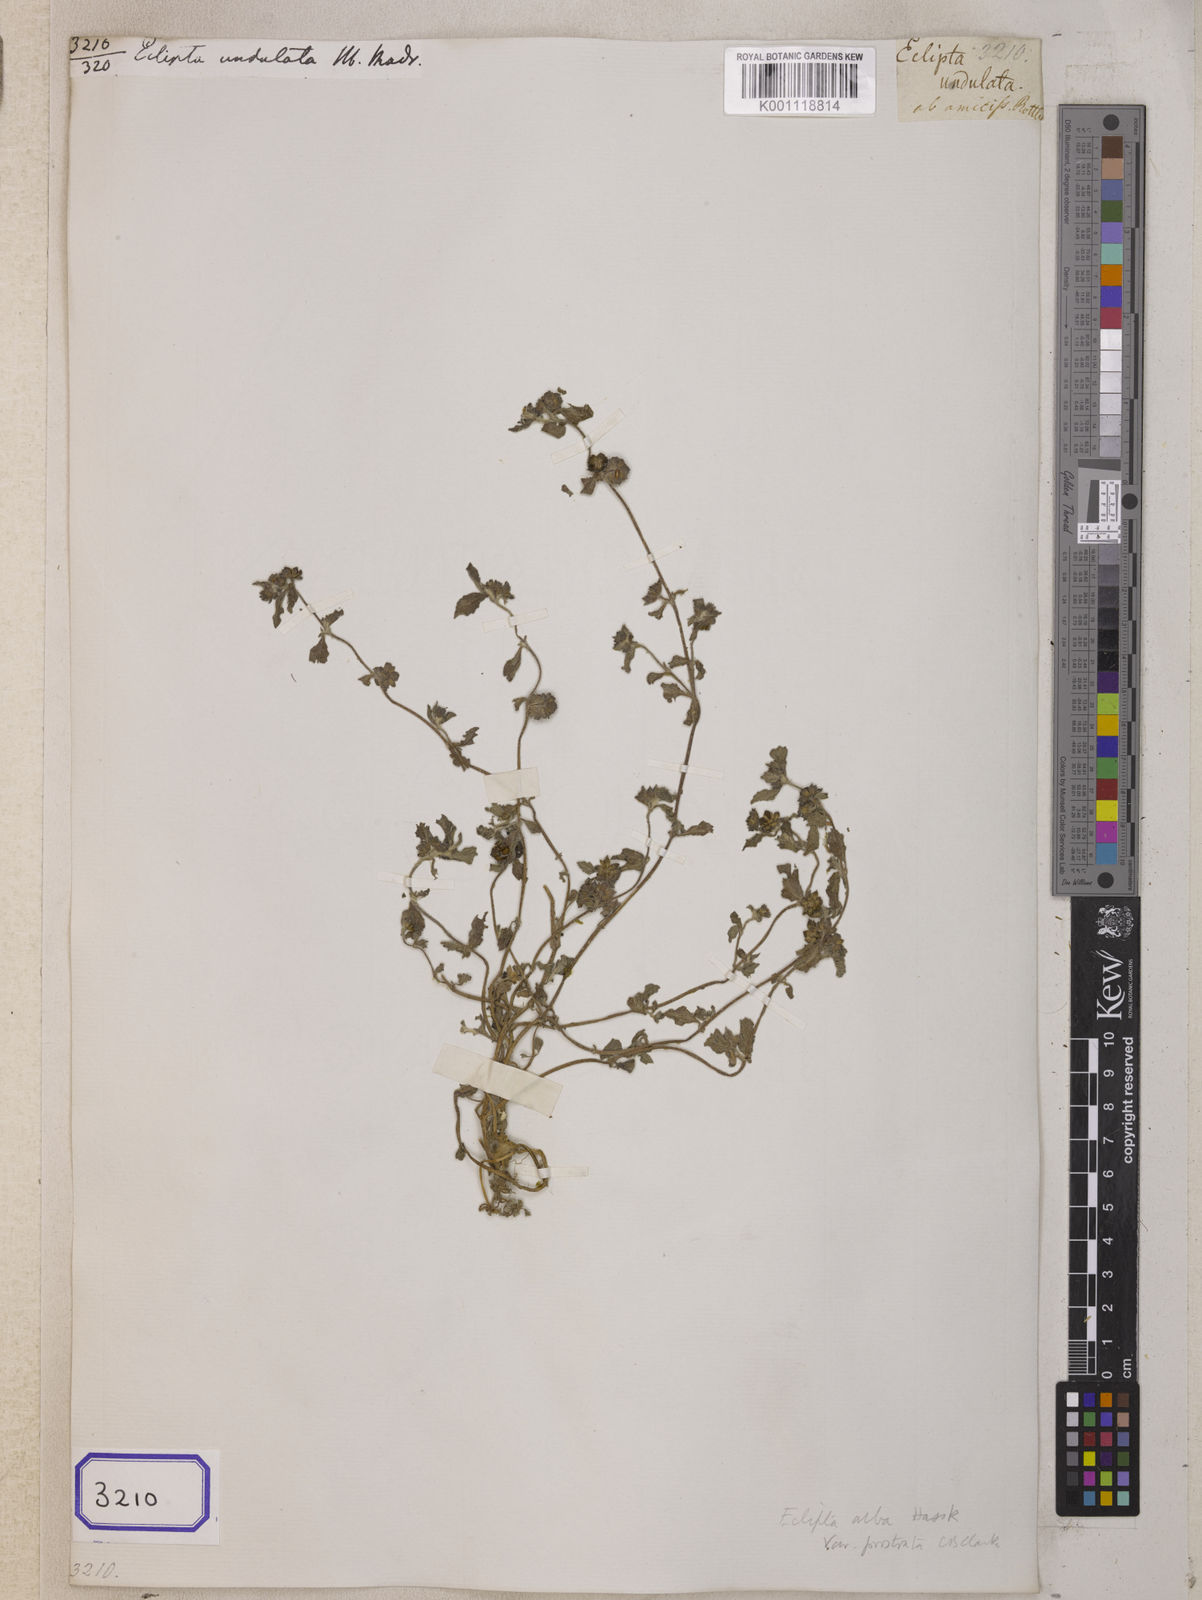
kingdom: Plantae
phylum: Tracheophyta
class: Magnoliopsida
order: Asterales
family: Asteraceae
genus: Eleutheranthera
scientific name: Eleutheranthera ruderalis
